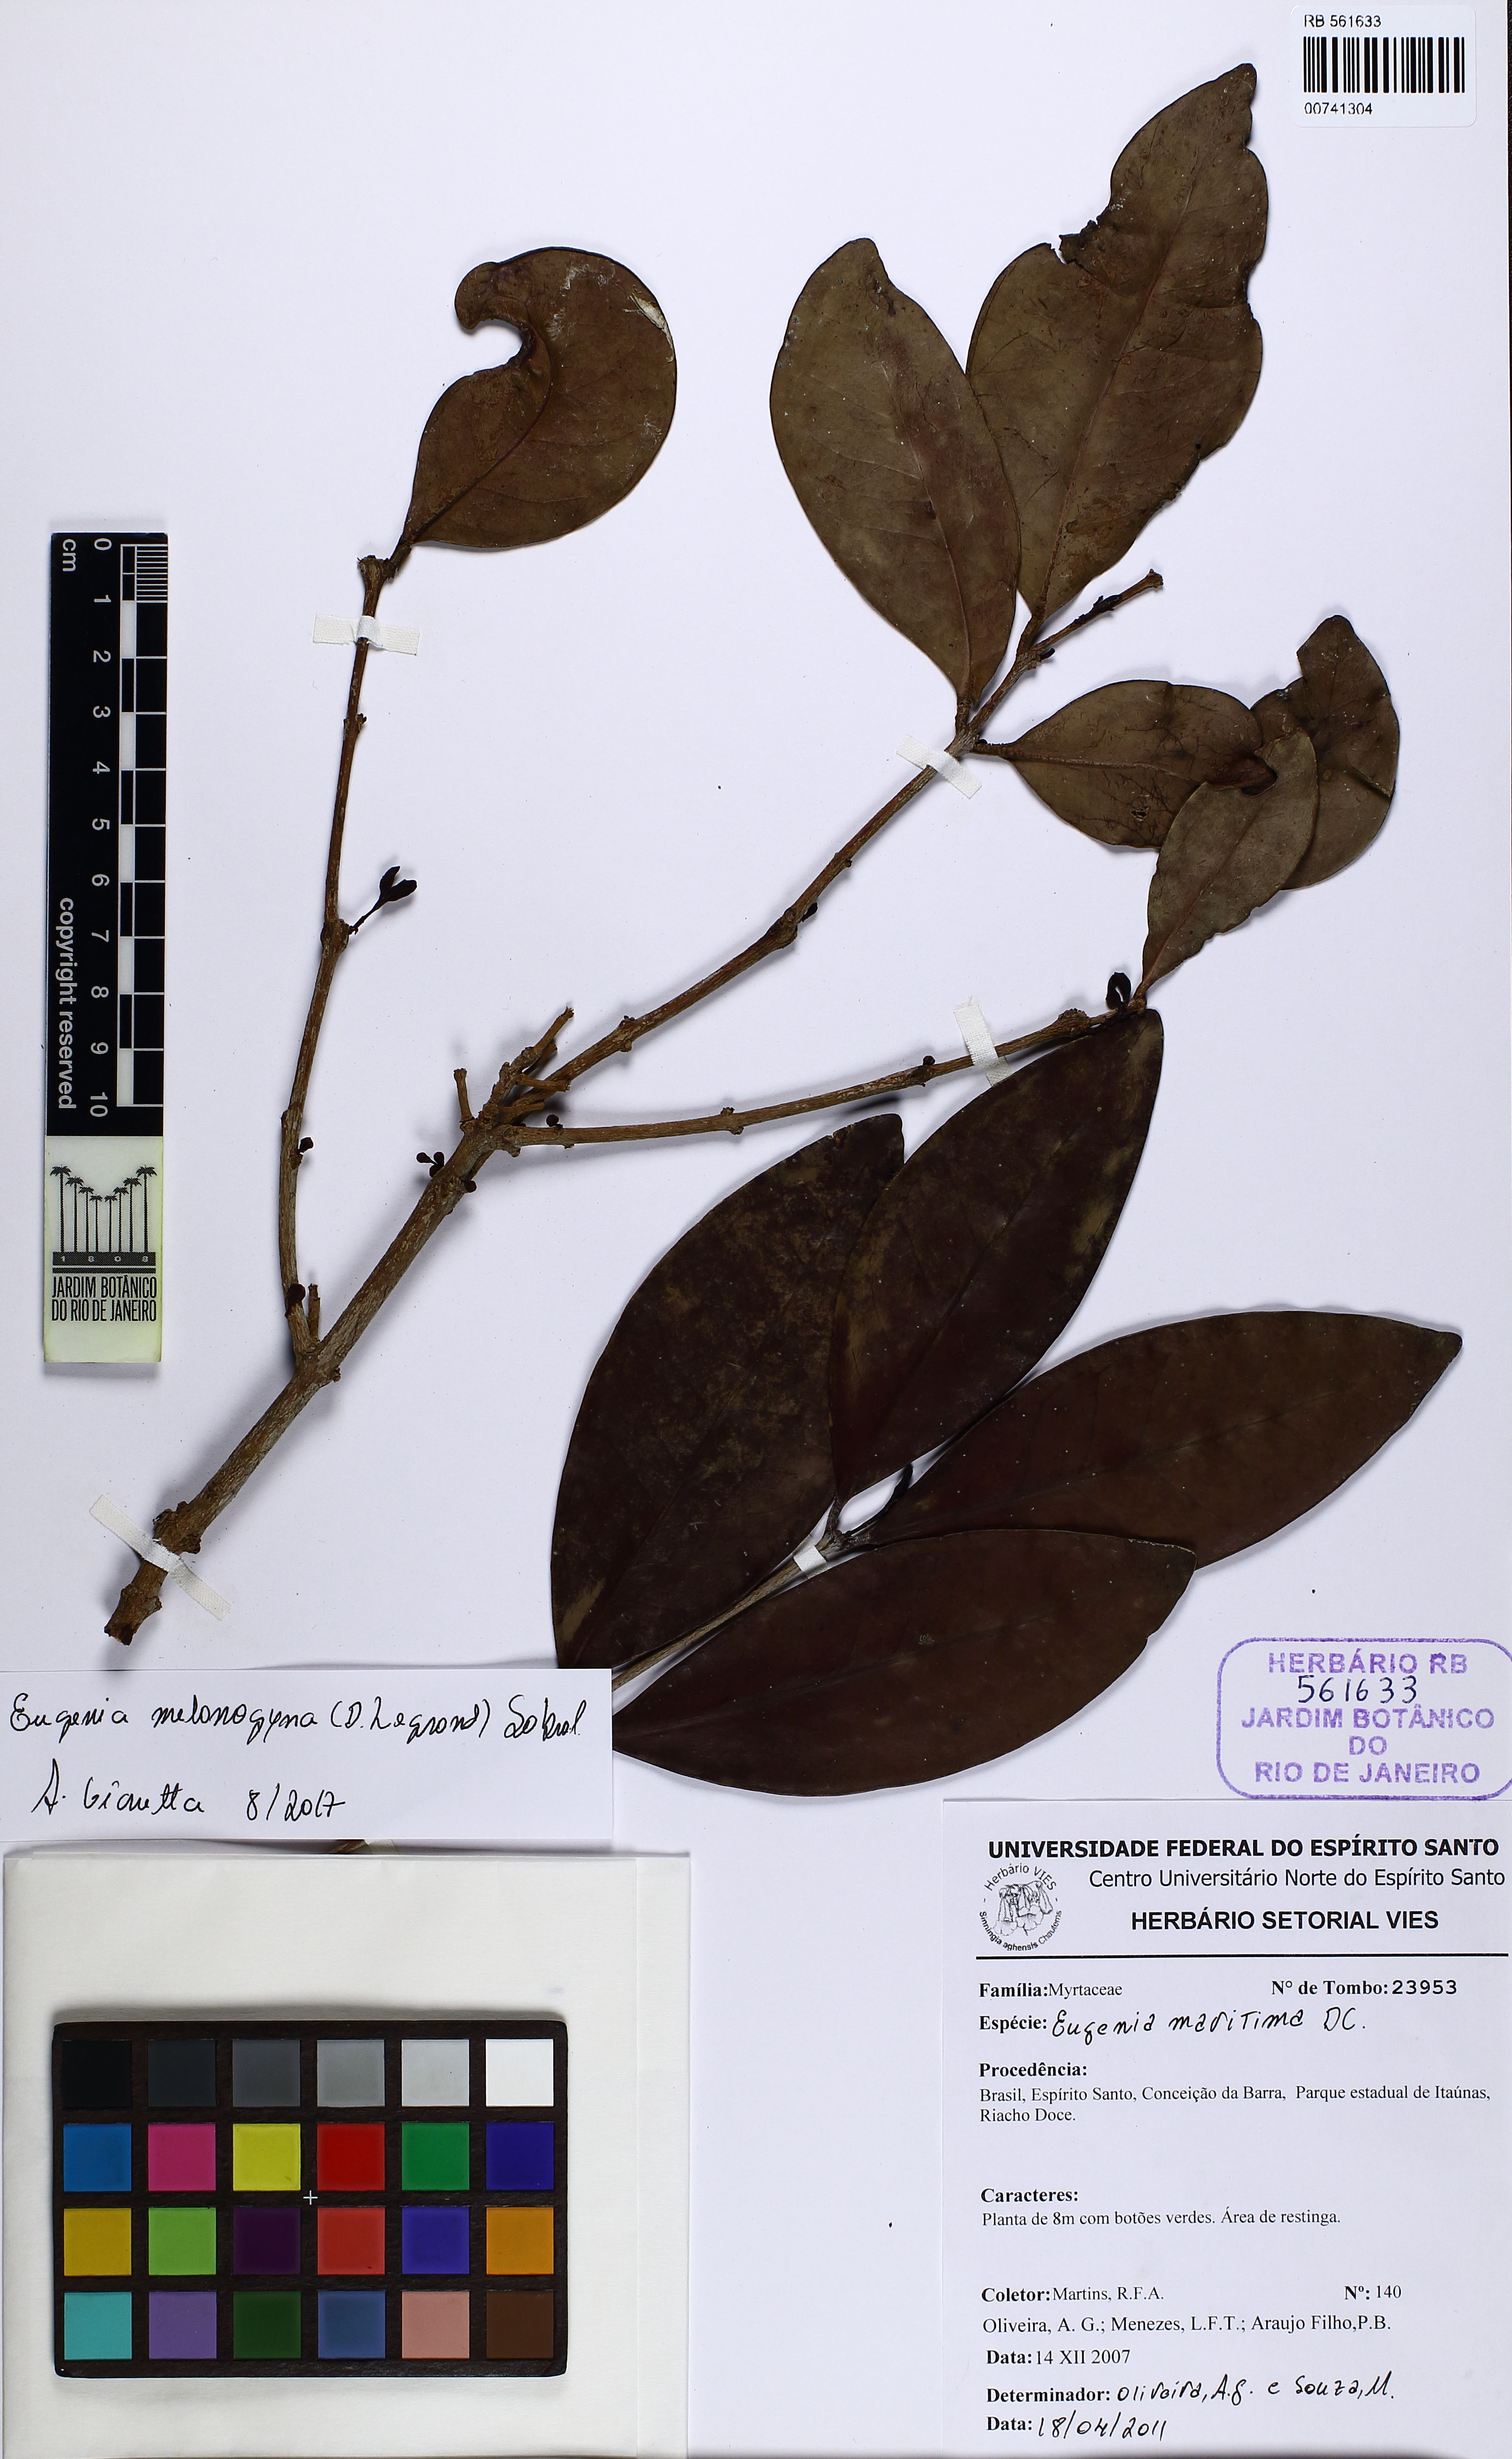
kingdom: Plantae
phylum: Tracheophyta
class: Magnoliopsida
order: Myrtales
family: Myrtaceae
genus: Eugenia
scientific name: Eugenia melanogyna
